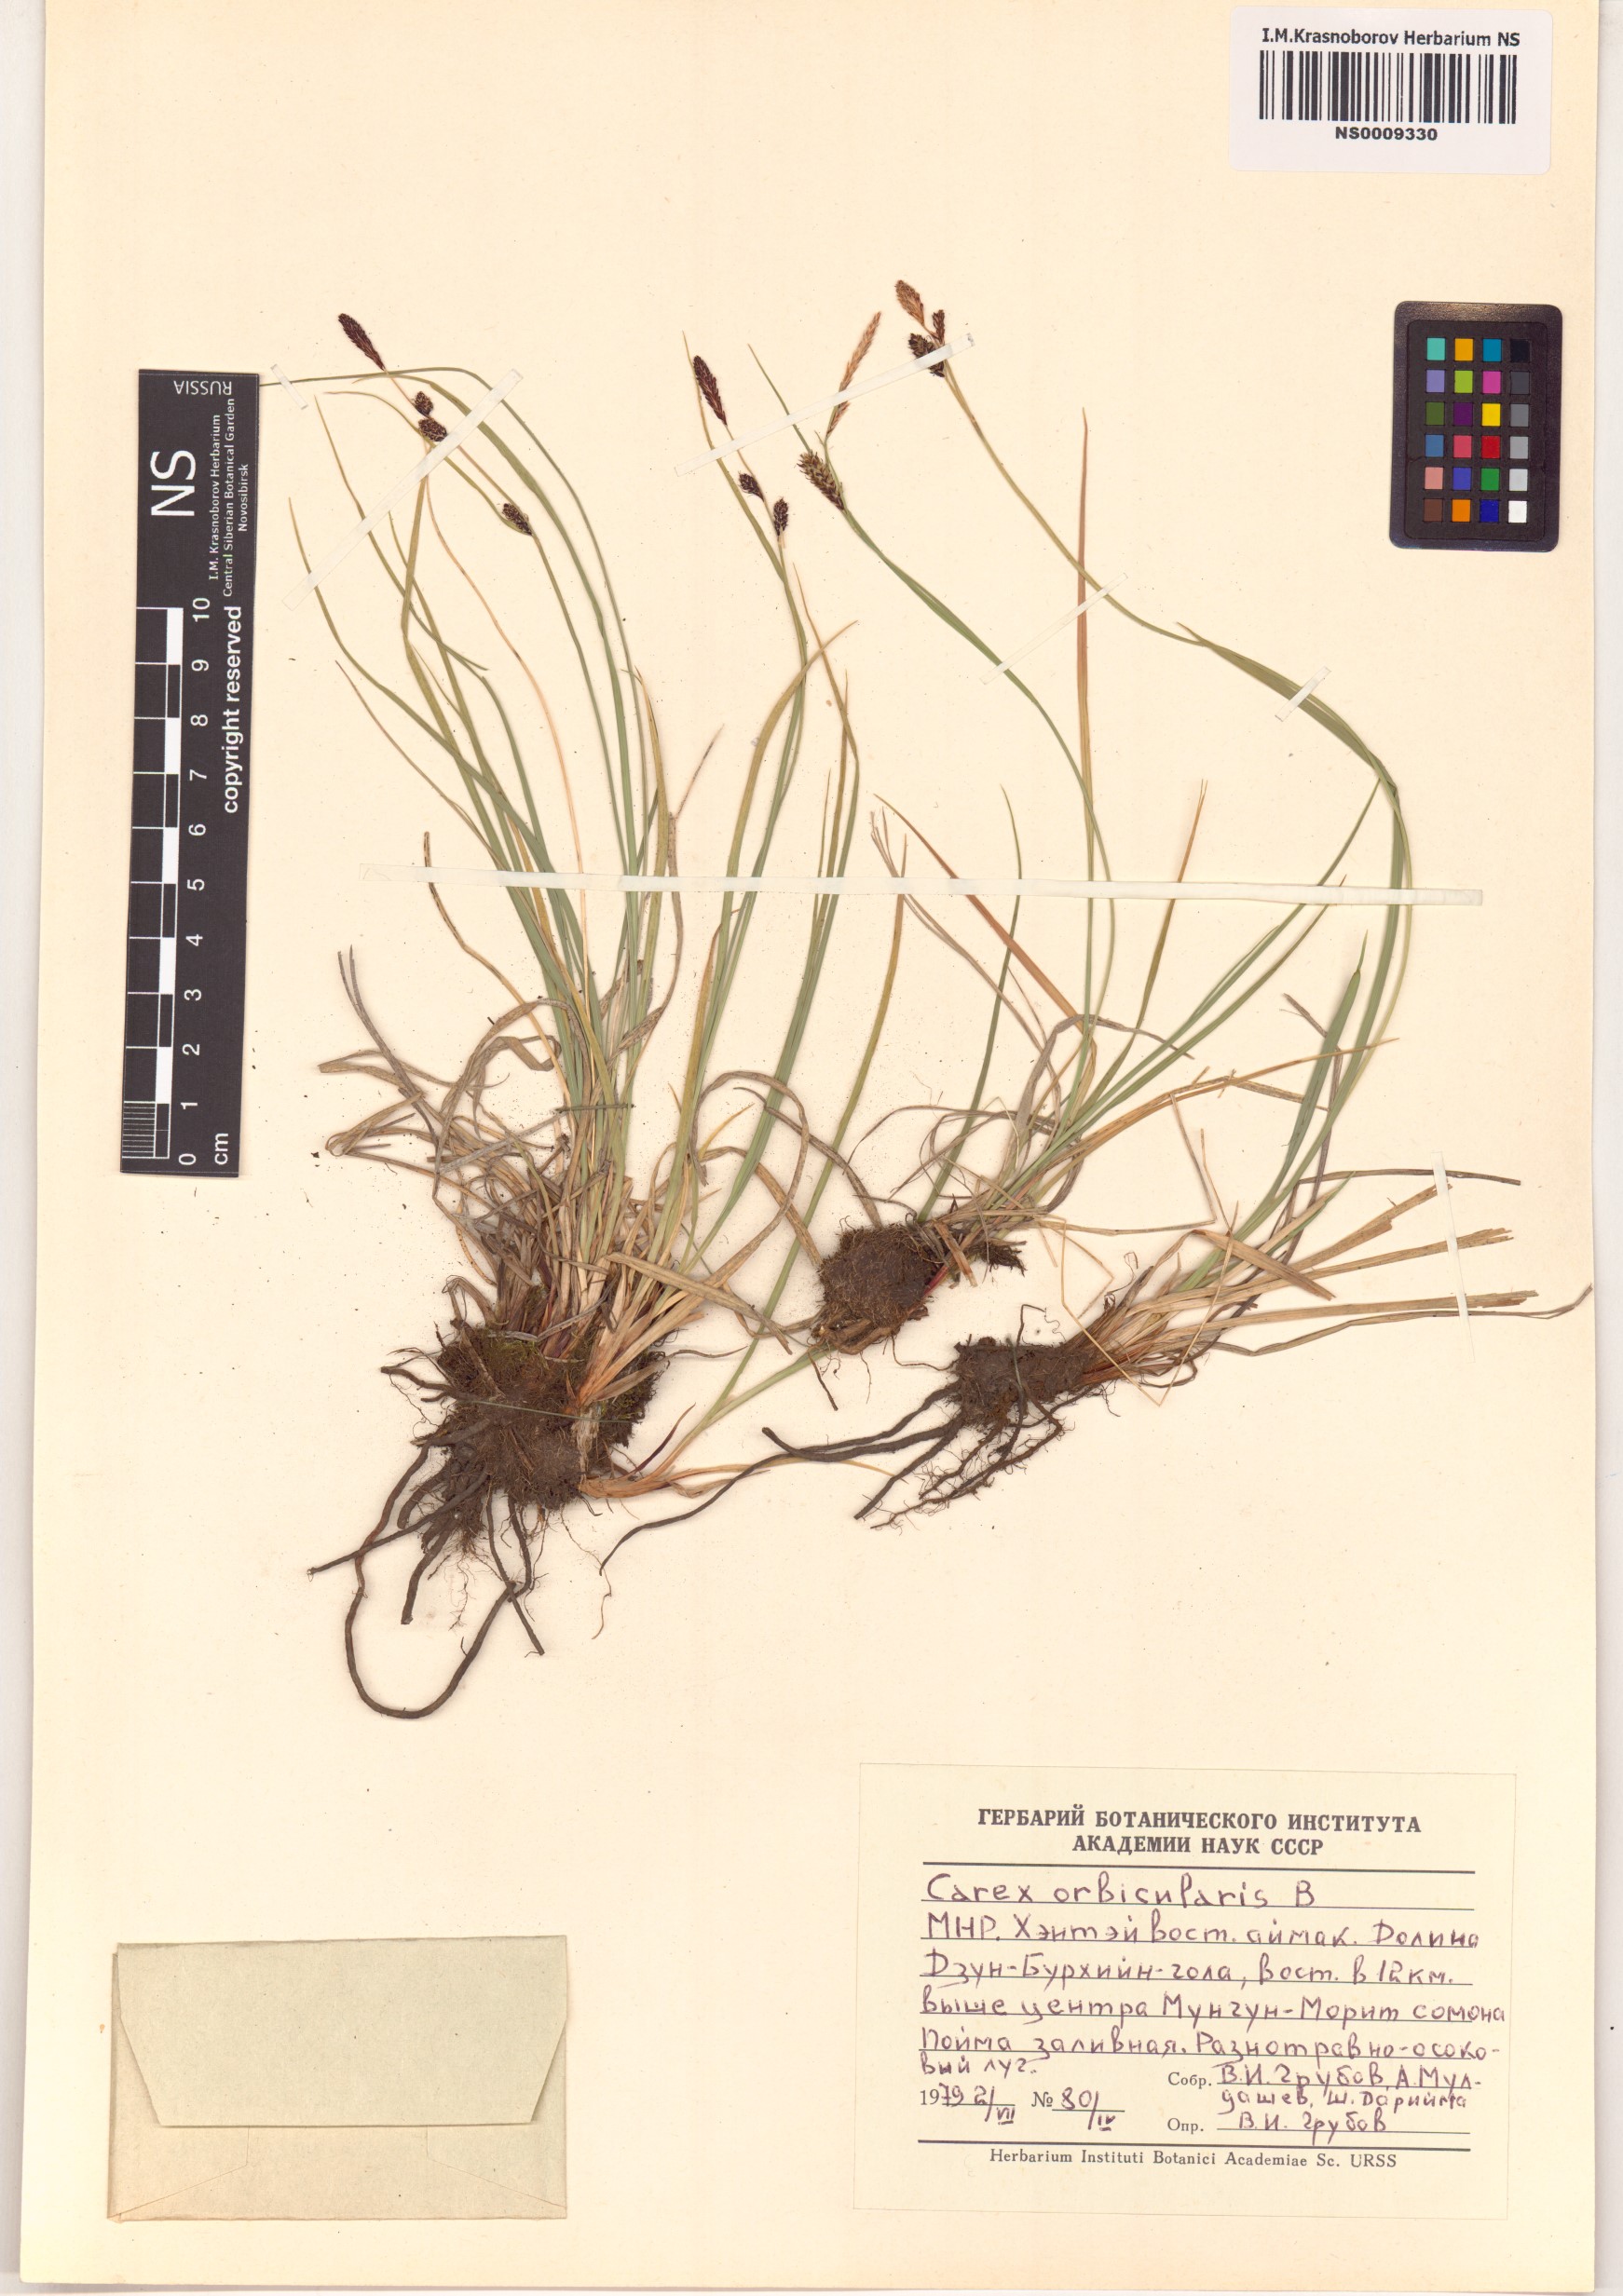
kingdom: Plantae
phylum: Tracheophyta
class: Liliopsida
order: Poales
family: Cyperaceae
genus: Carex
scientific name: Carex orbicularis
